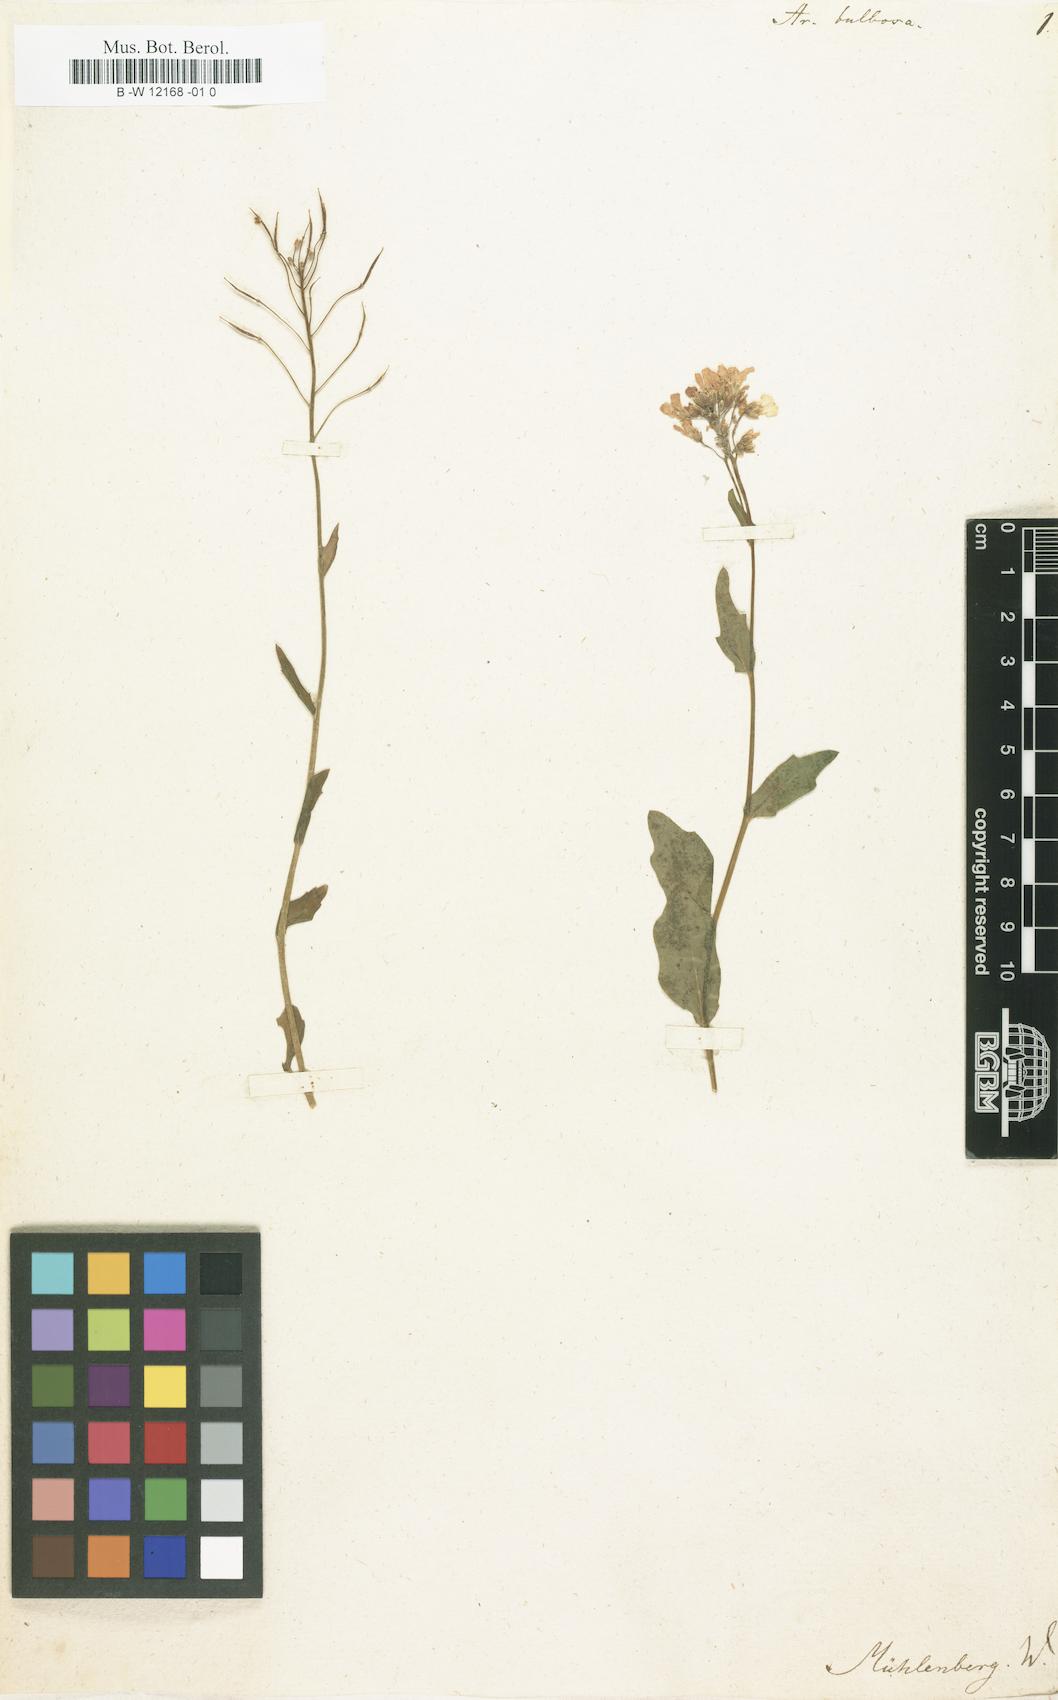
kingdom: Plantae
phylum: Tracheophyta
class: Magnoliopsida
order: Brassicales
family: Brassicaceae
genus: Cardamine
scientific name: Cardamine bulbosa
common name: Spring cress
